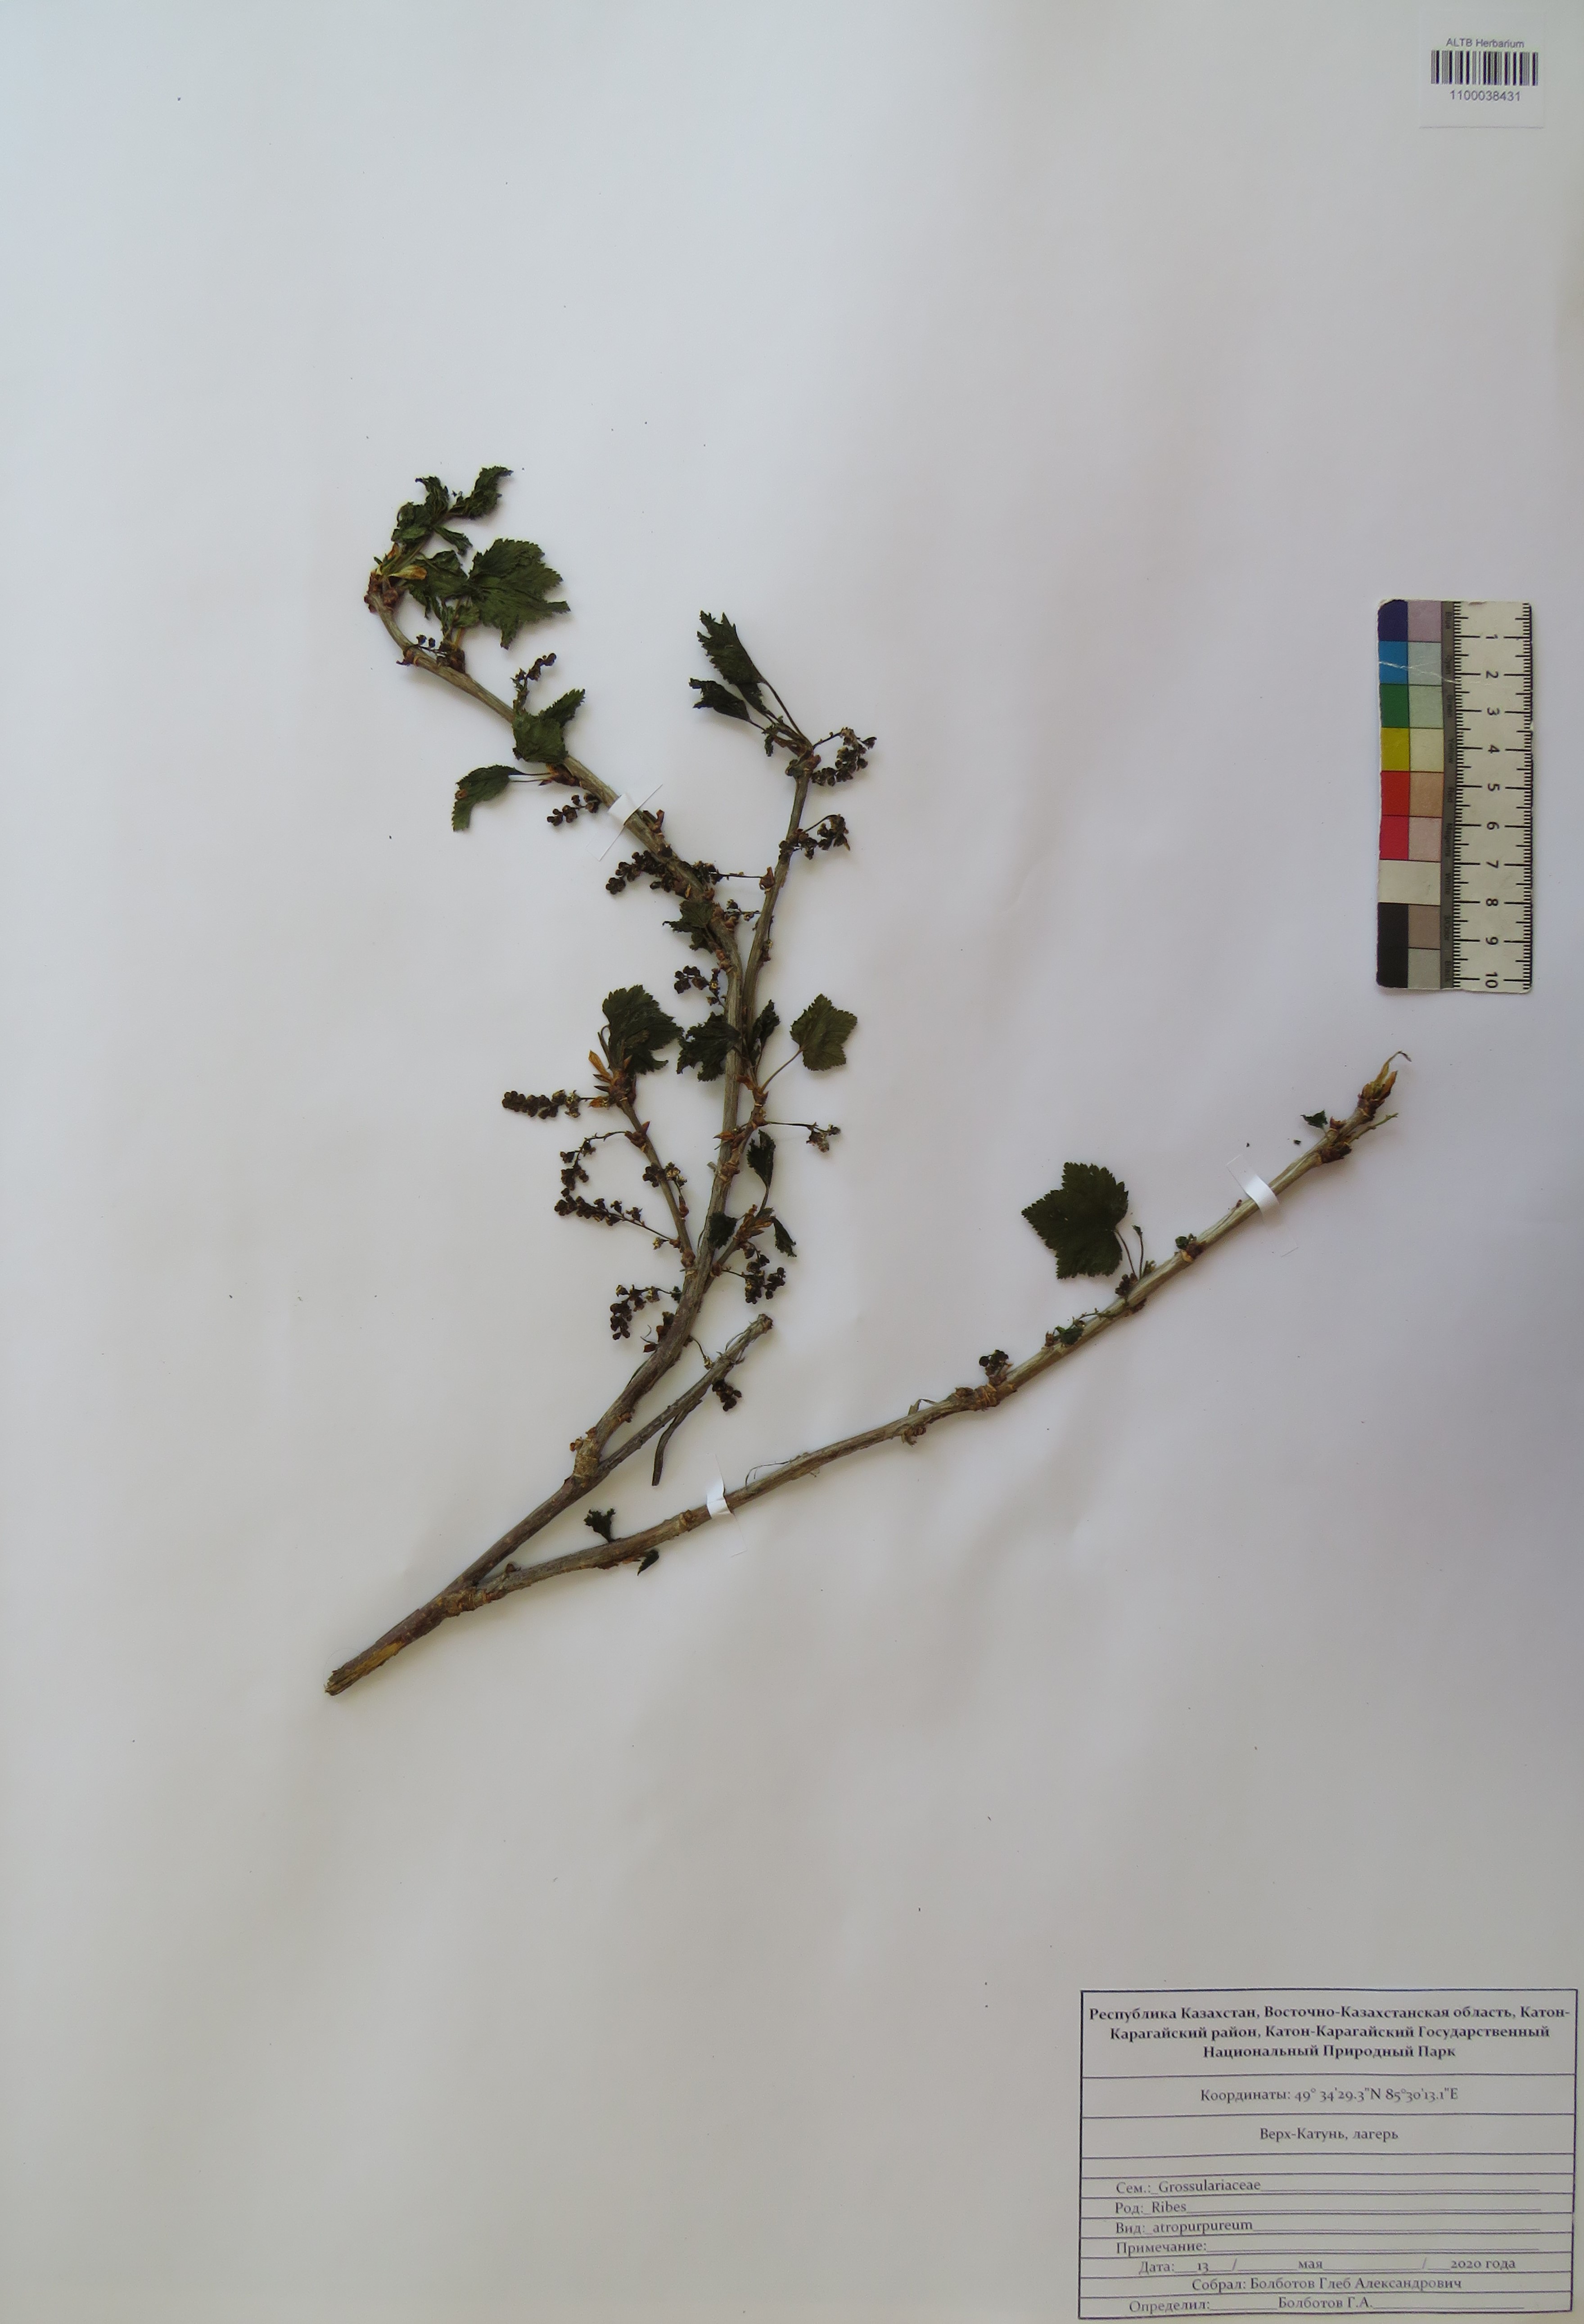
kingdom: Plantae
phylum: Tracheophyta
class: Magnoliopsida
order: Saxifragales
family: Grossulariaceae
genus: Ribes
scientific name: Ribes petraeum
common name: Rock currant
